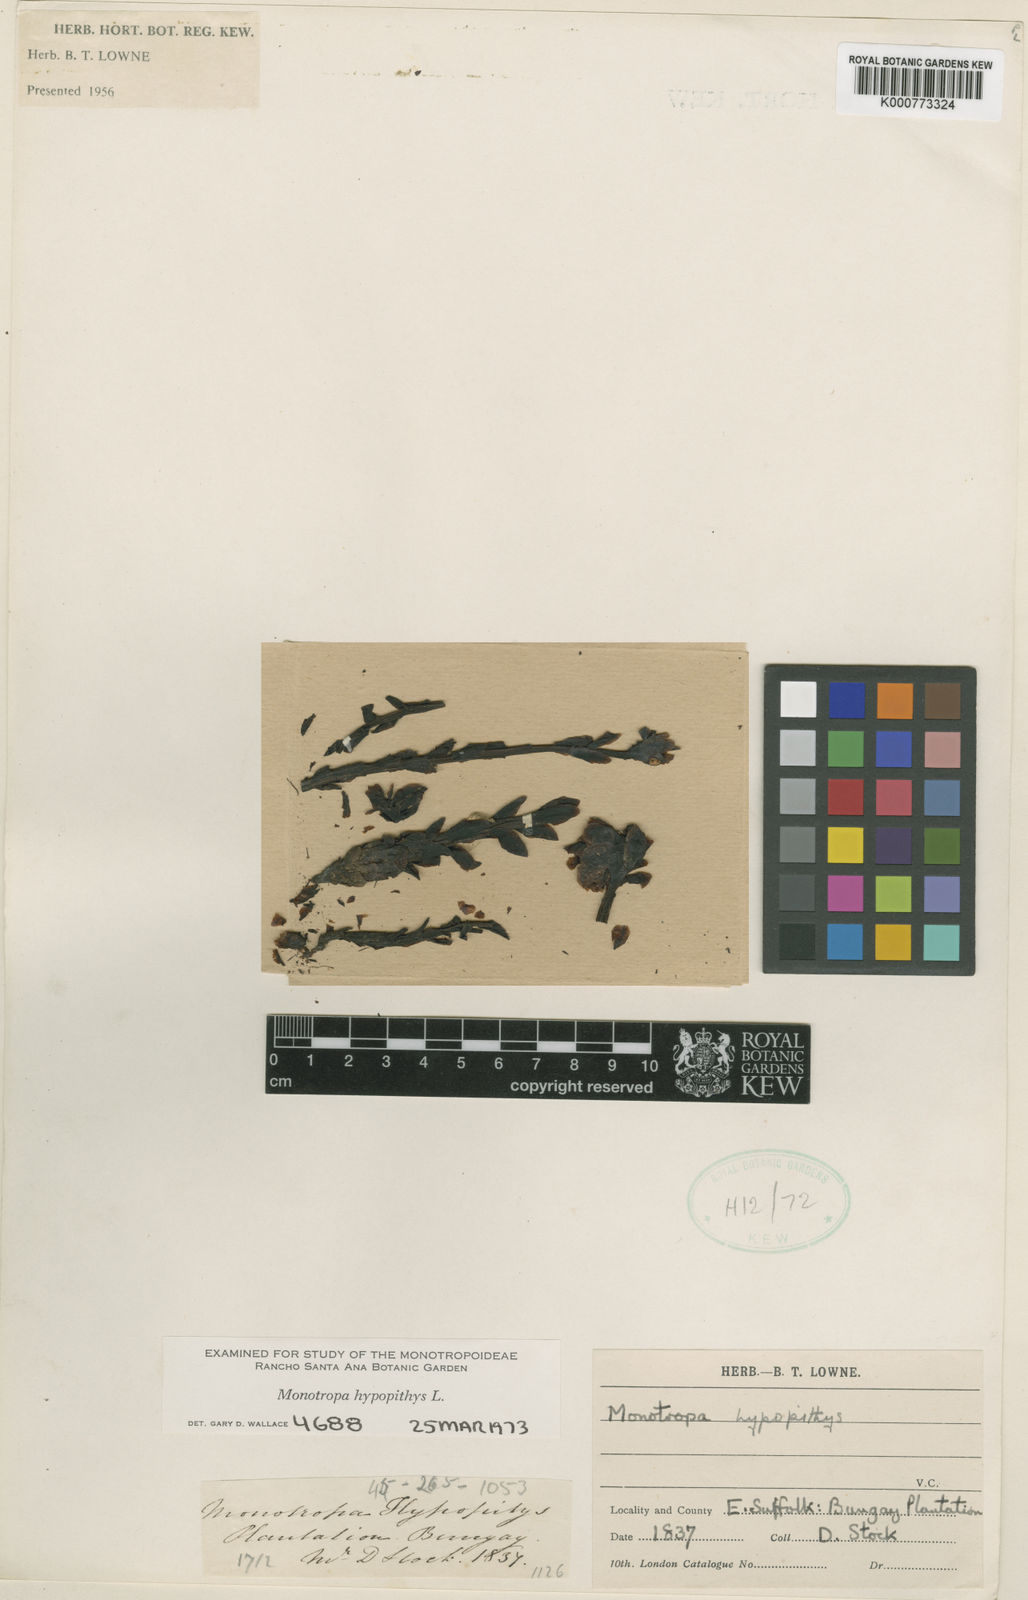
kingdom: Plantae
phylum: Tracheophyta
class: Magnoliopsida
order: Ericales
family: Ericaceae
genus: Monotropa
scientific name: Monotropa
